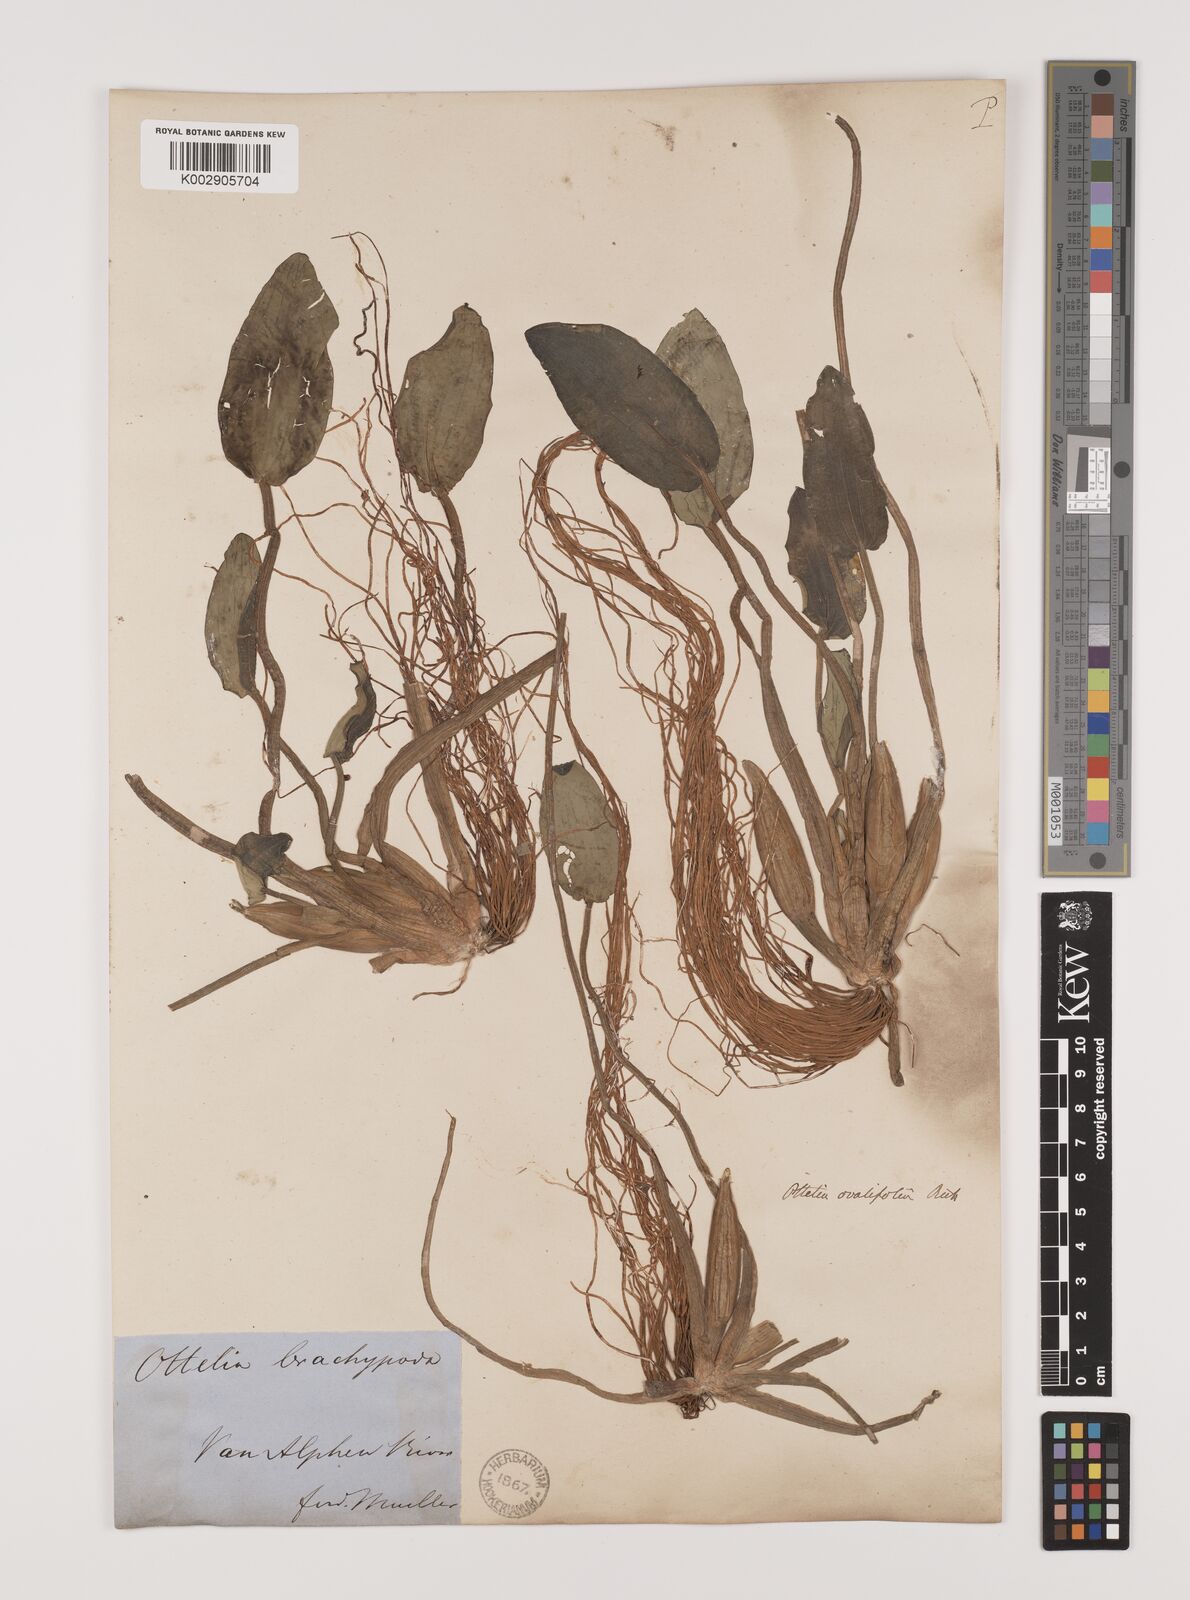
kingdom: Plantae
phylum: Tracheophyta
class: Liliopsida
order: Alismatales
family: Hydrocharitaceae
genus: Ottelia
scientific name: Ottelia ovalifolia
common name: Swamp-lily
